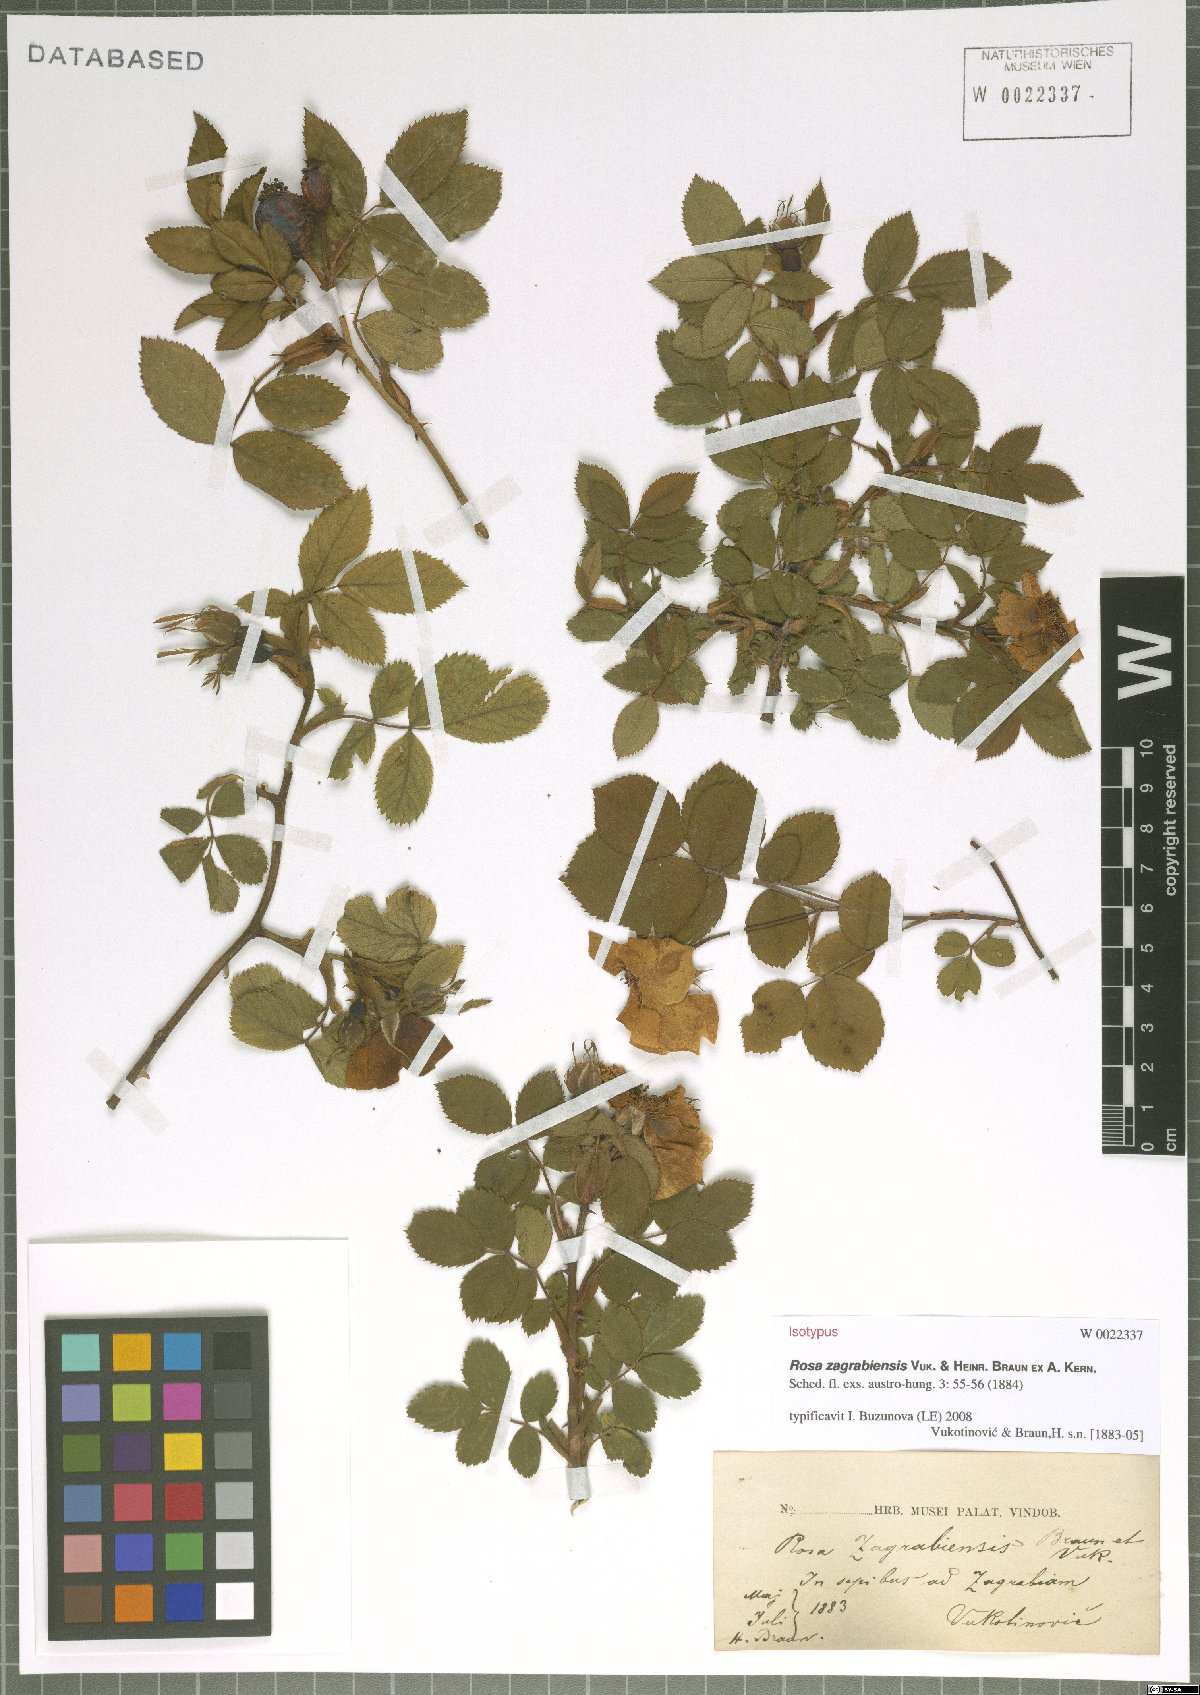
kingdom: Plantae
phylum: Tracheophyta
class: Magnoliopsida
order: Rosales
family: Rosaceae
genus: Rosa
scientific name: Rosa marginata
